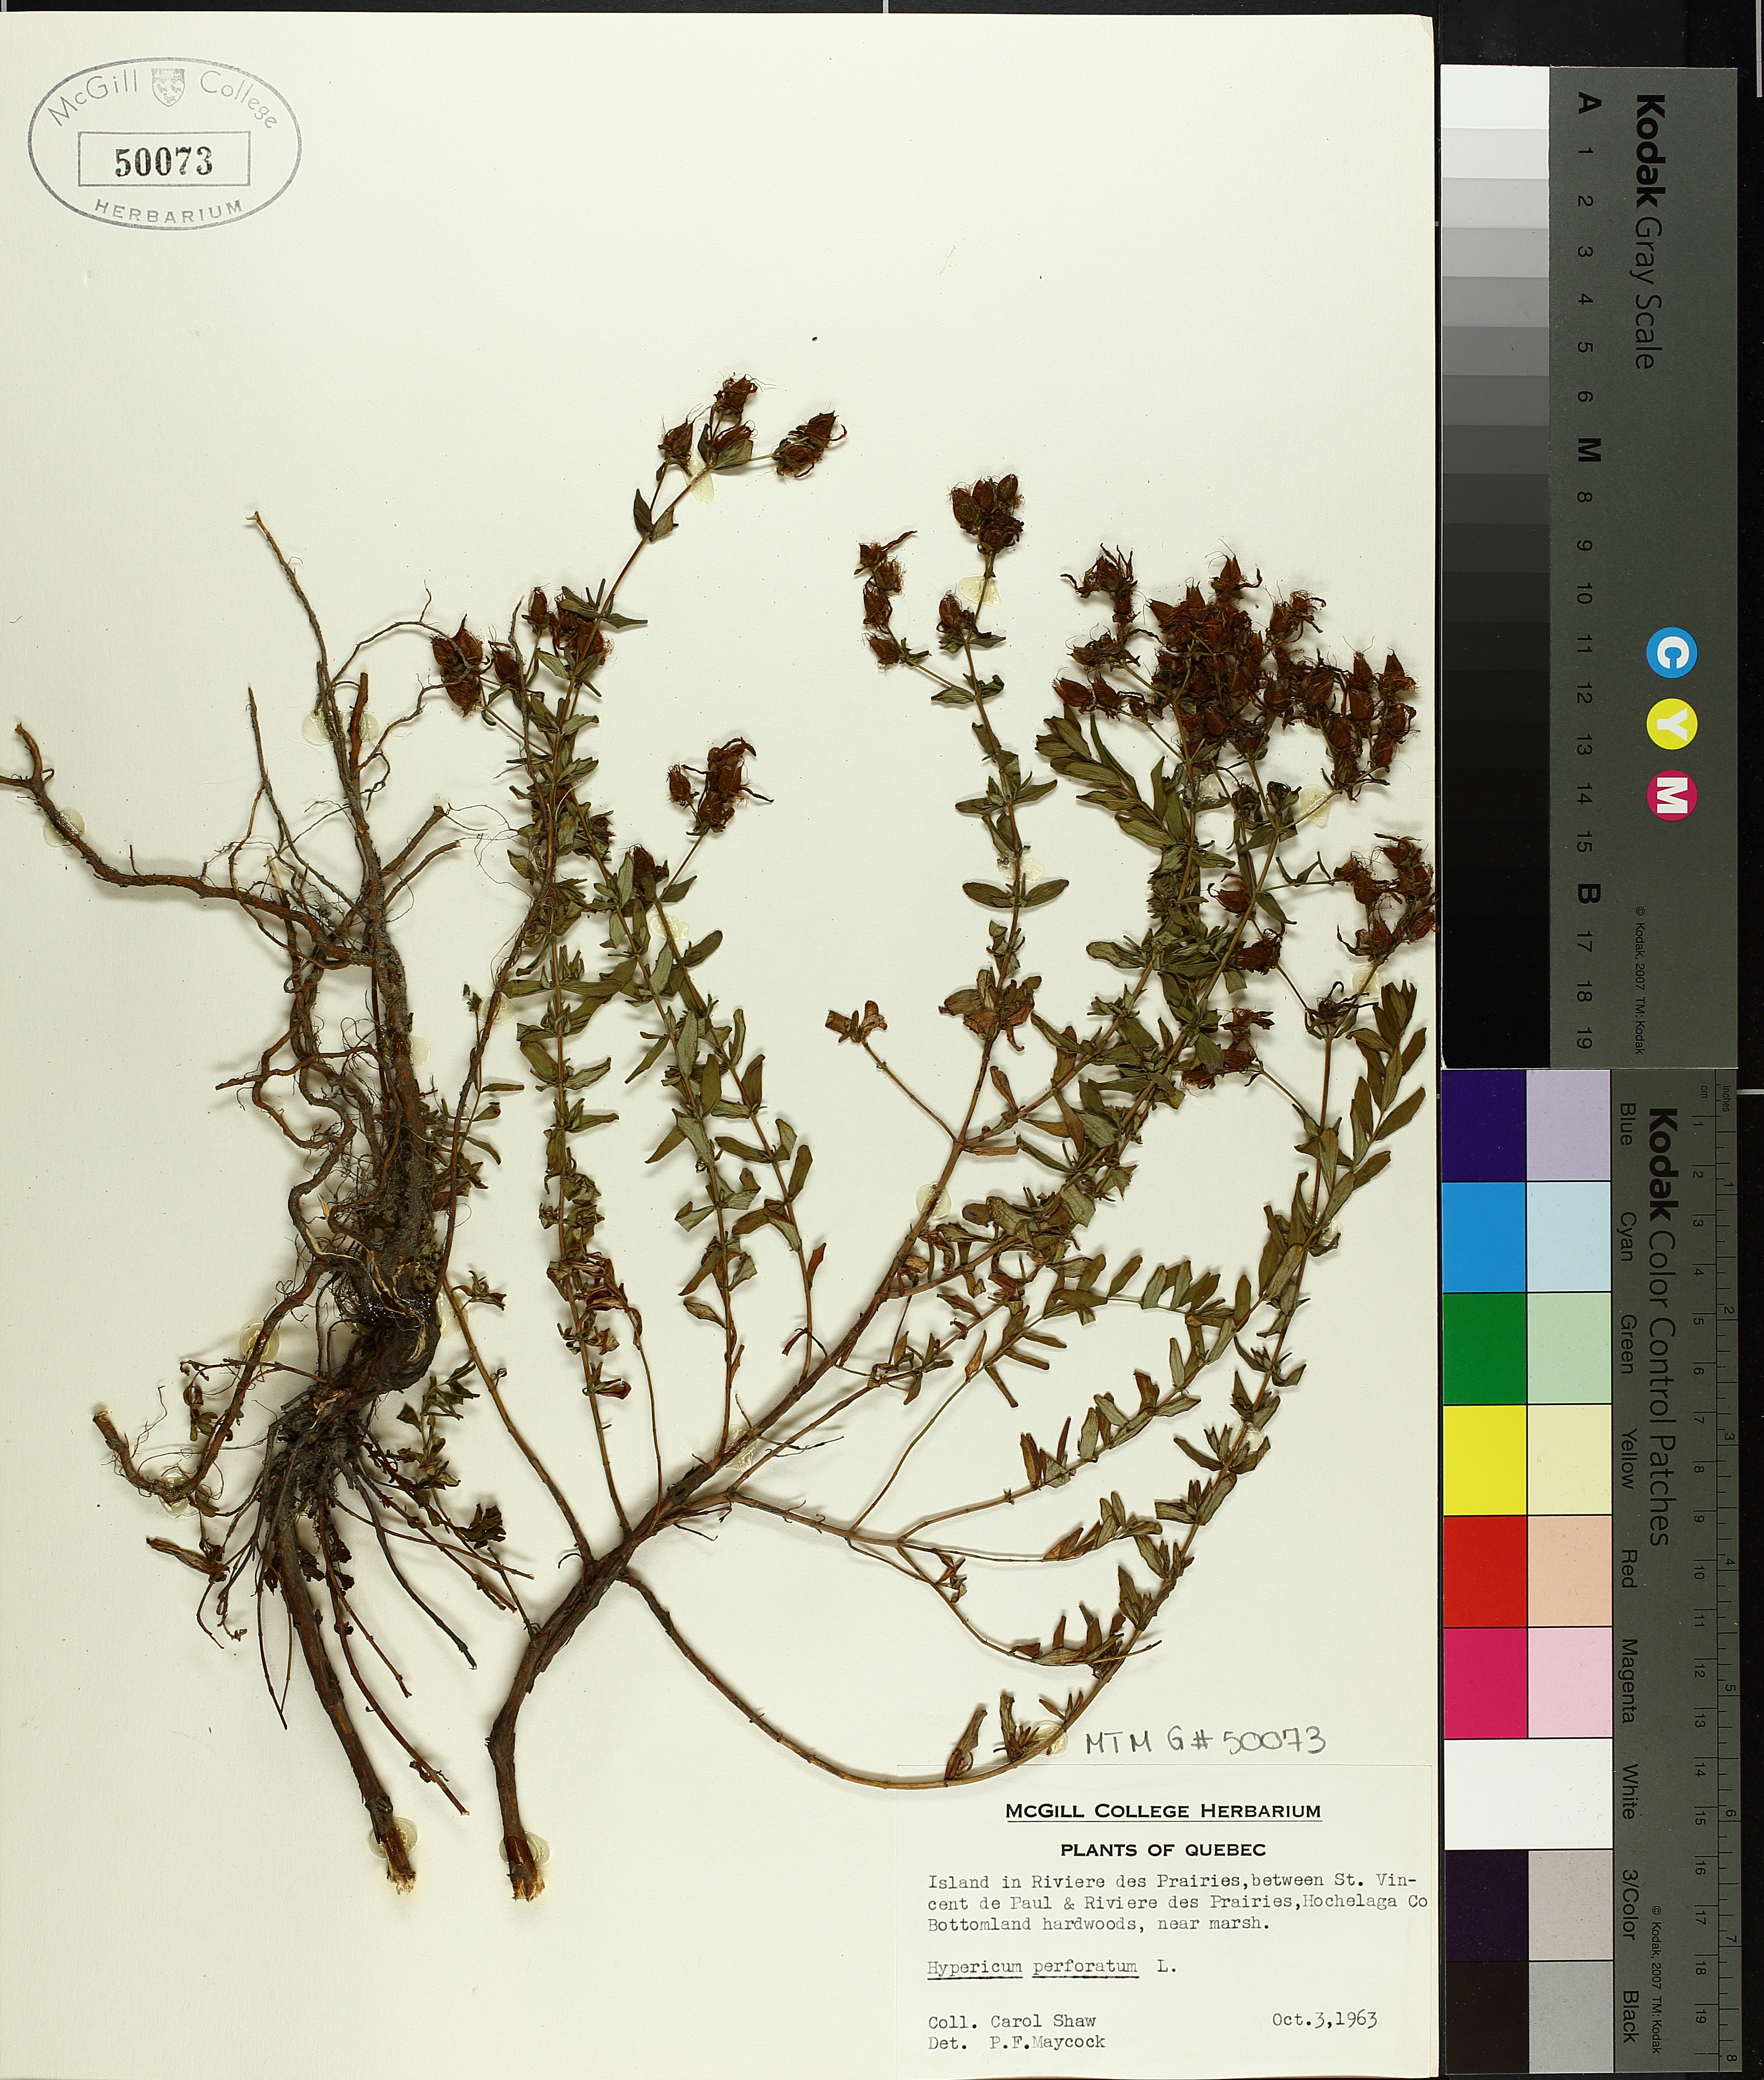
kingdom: Plantae
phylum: Tracheophyta
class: Magnoliopsida
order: Malpighiales
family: Hypericaceae
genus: Hypericum
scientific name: Hypericum perforatum
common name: Common st. johnswort
